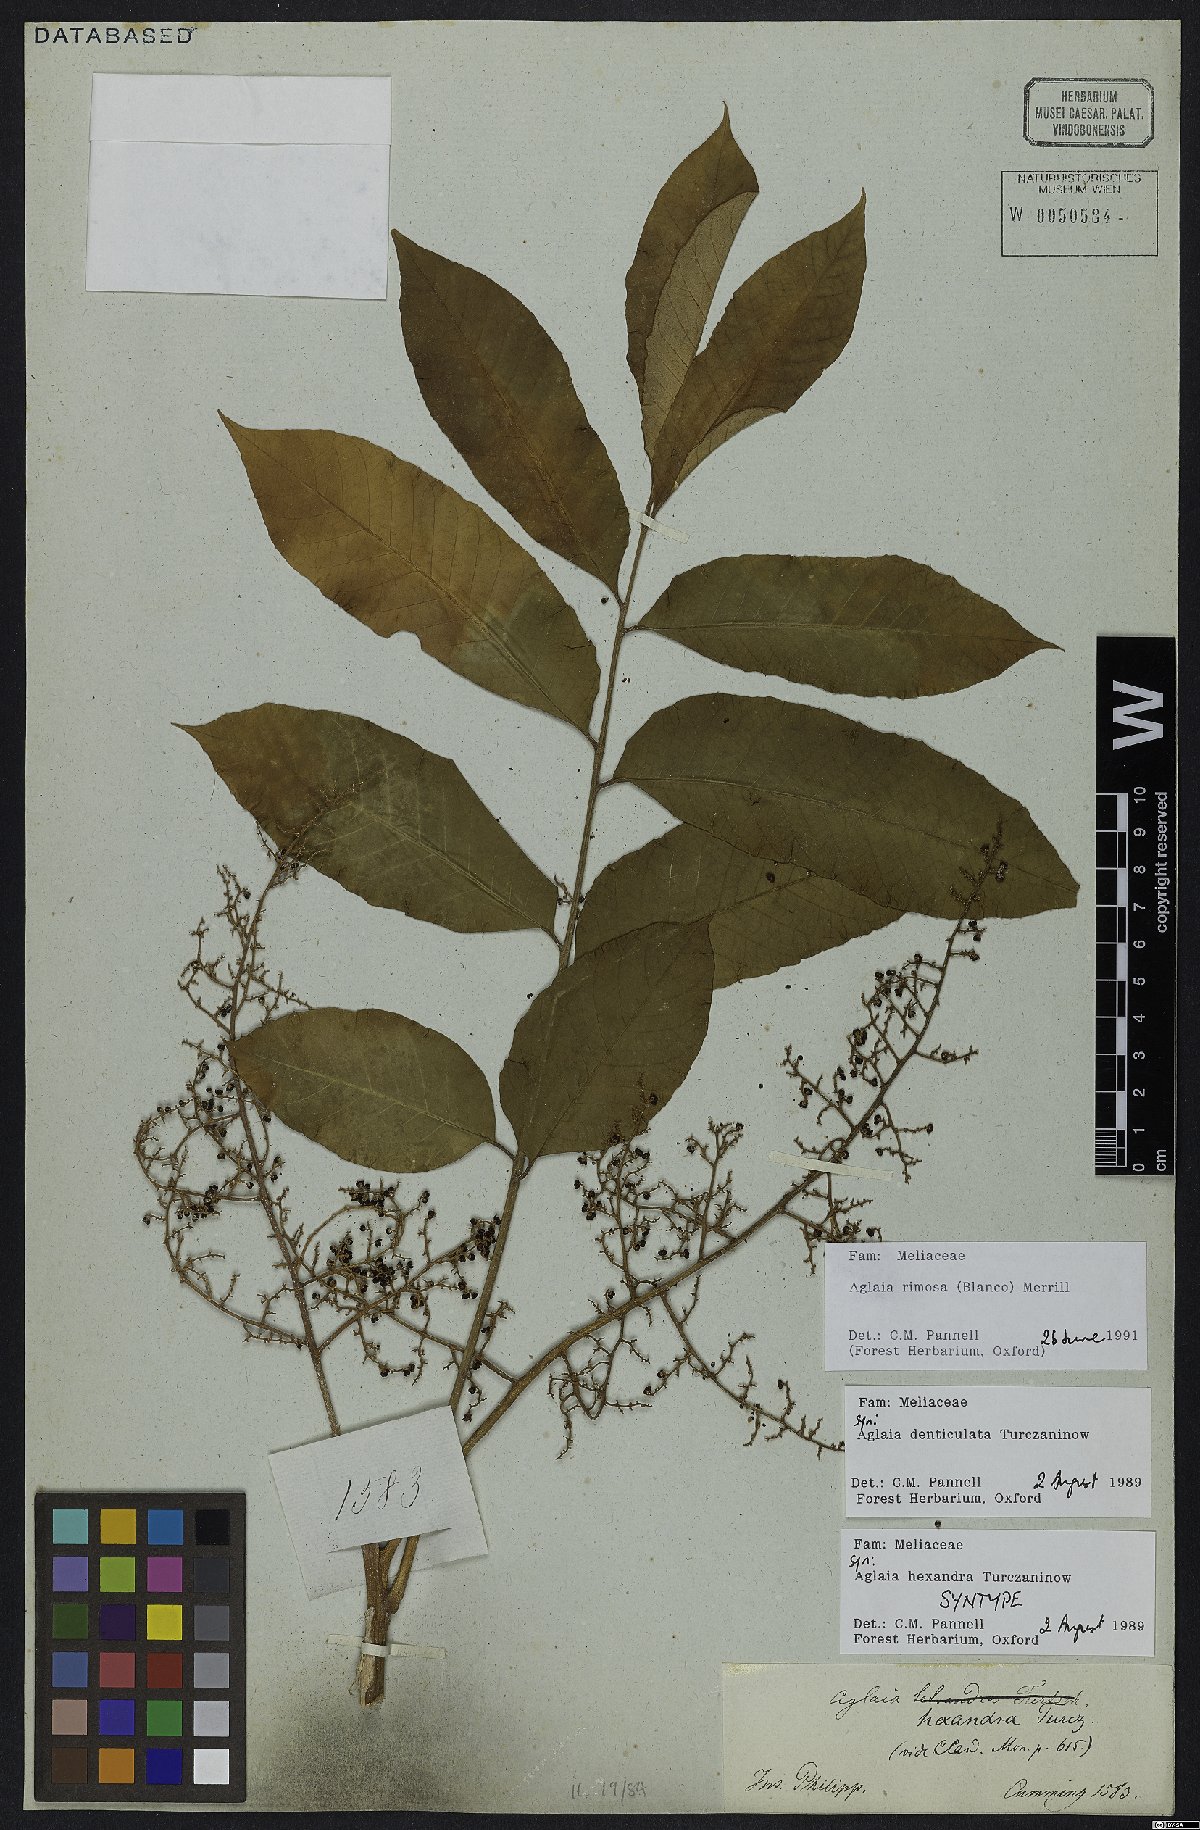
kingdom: Plantae
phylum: Tracheophyta
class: Magnoliopsida
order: Sapindales
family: Meliaceae
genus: Aglaia
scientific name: Aglaia rimosa
